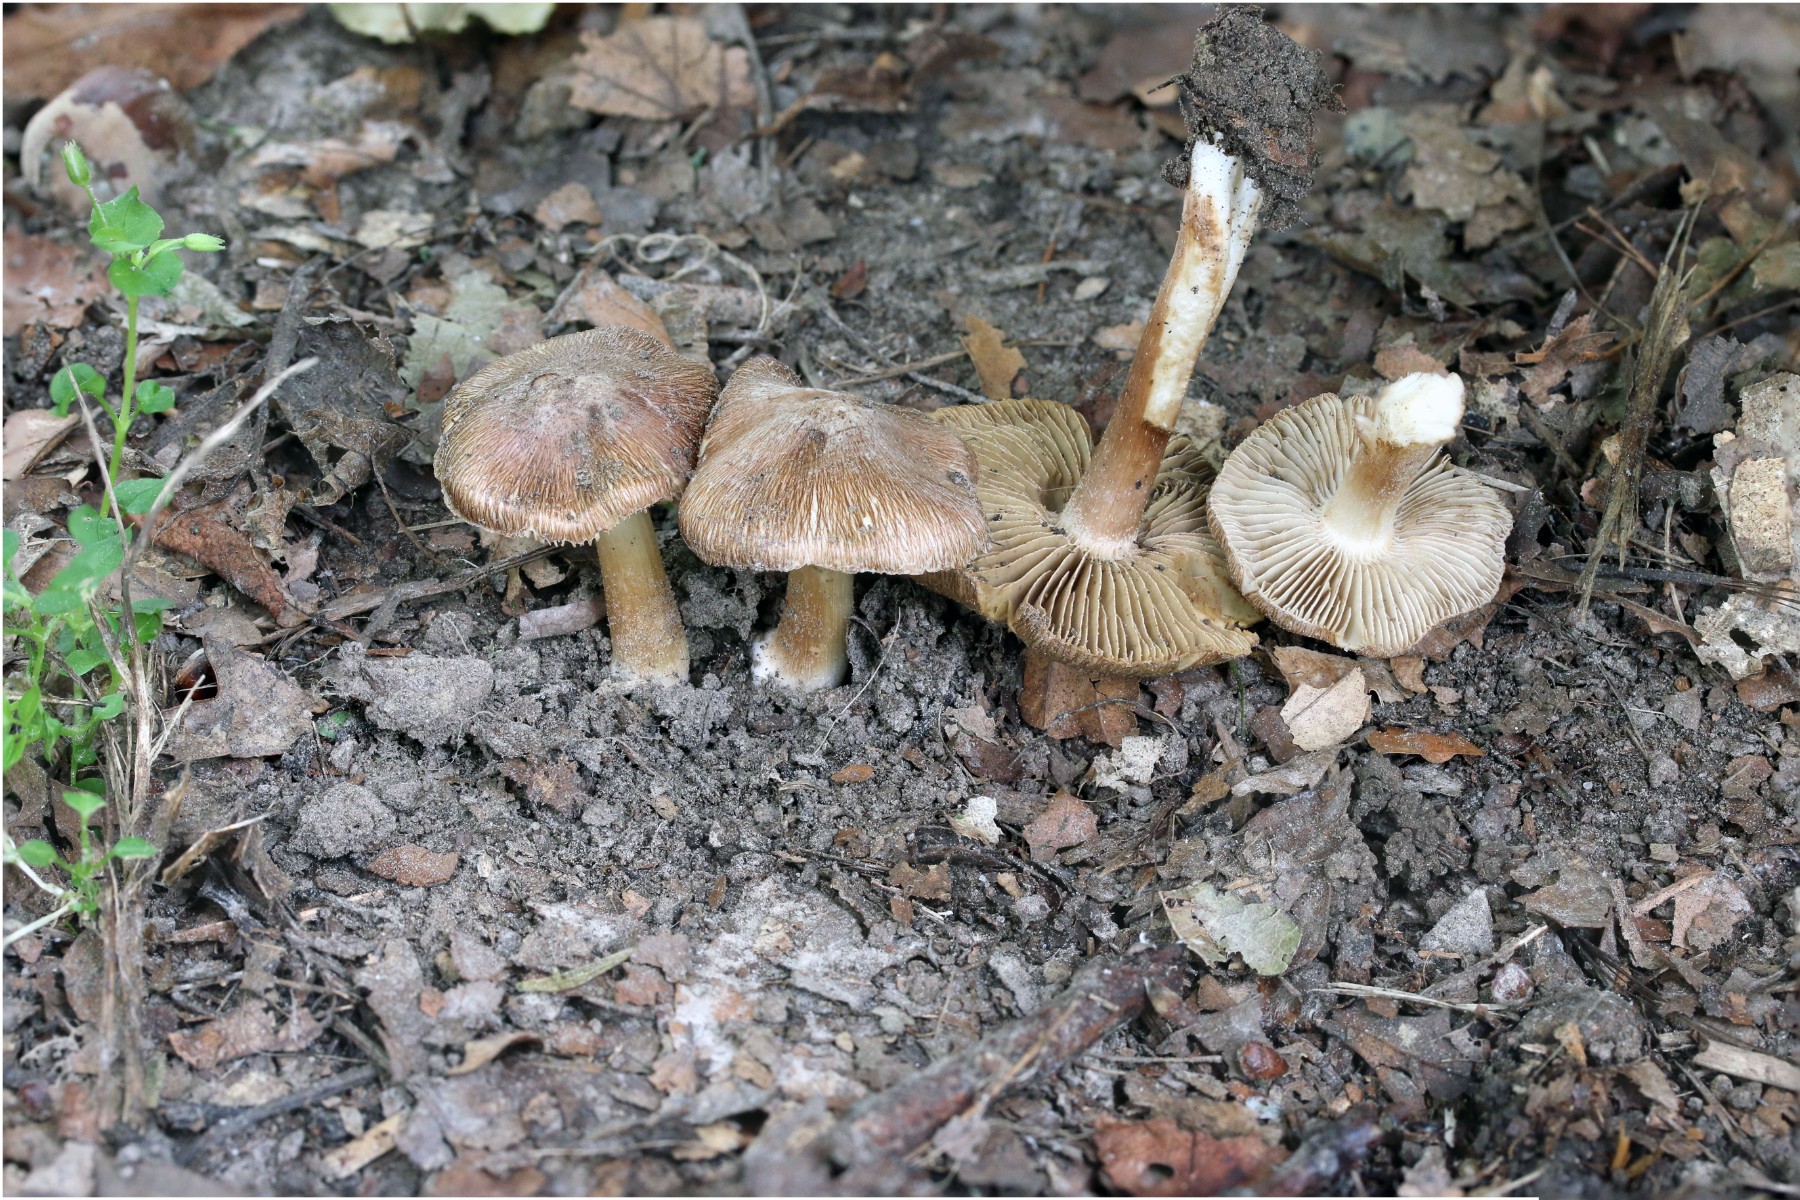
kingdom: Fungi
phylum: Basidiomycota
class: Agaricomycetes
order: Agaricales
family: Inocybaceae
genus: Inosperma
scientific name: Inosperma
